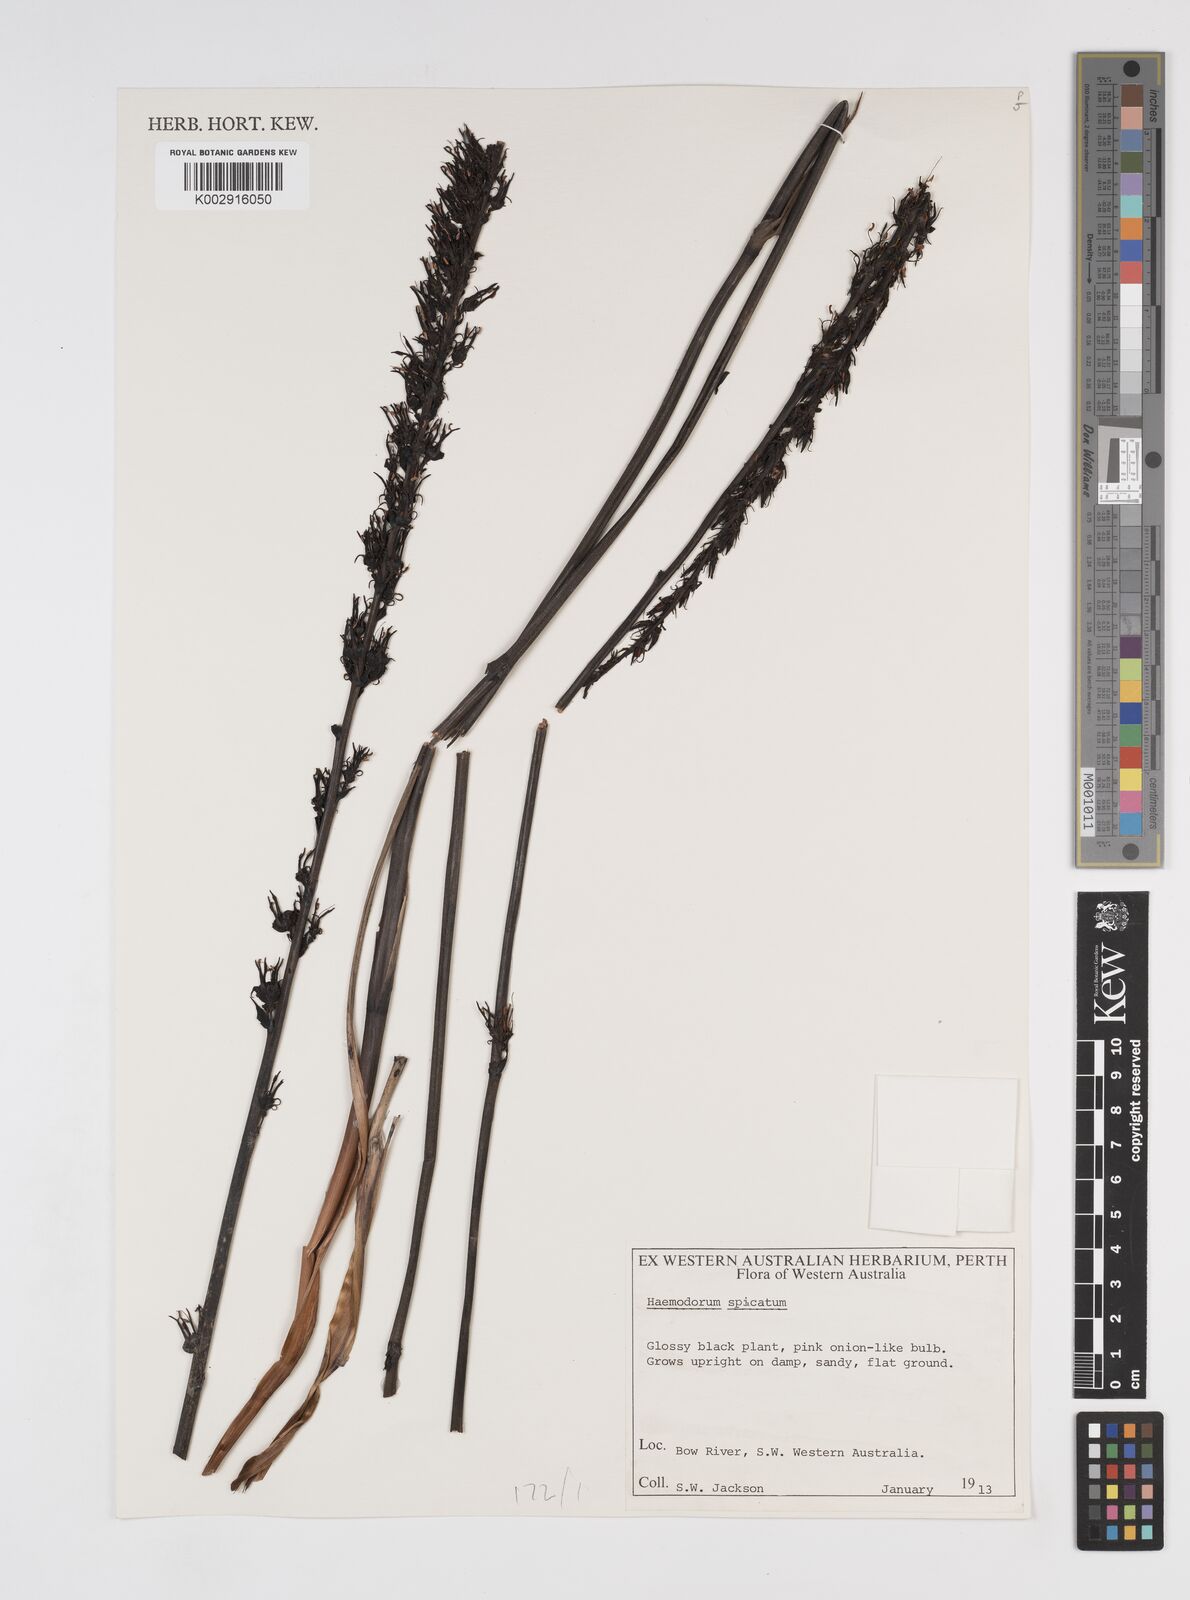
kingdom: Plantae
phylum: Tracheophyta
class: Liliopsida
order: Commelinales
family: Haemodoraceae
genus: Haemodorum
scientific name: Haemodorum spicatum
